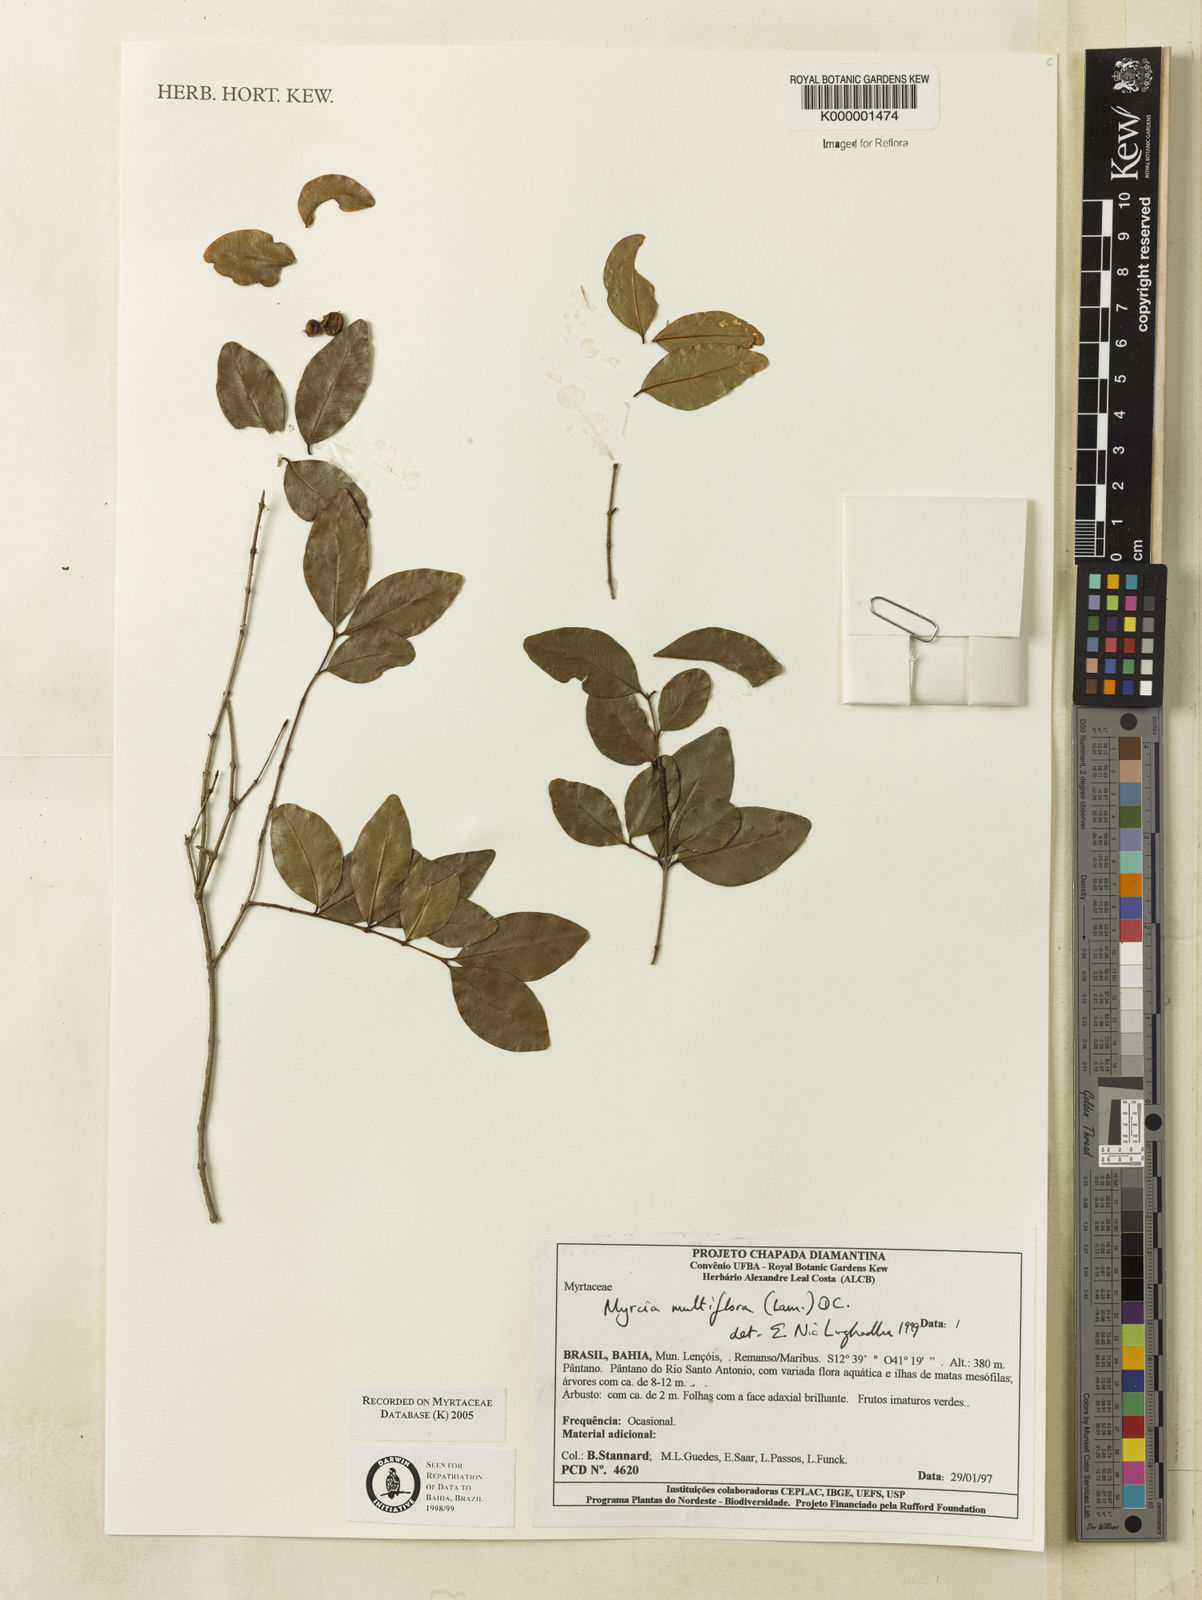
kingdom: Plantae
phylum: Tracheophyta
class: Magnoliopsida
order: Myrtales
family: Myrtaceae
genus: Myrcia
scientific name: Myrcia multiflora
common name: Pedra hume
